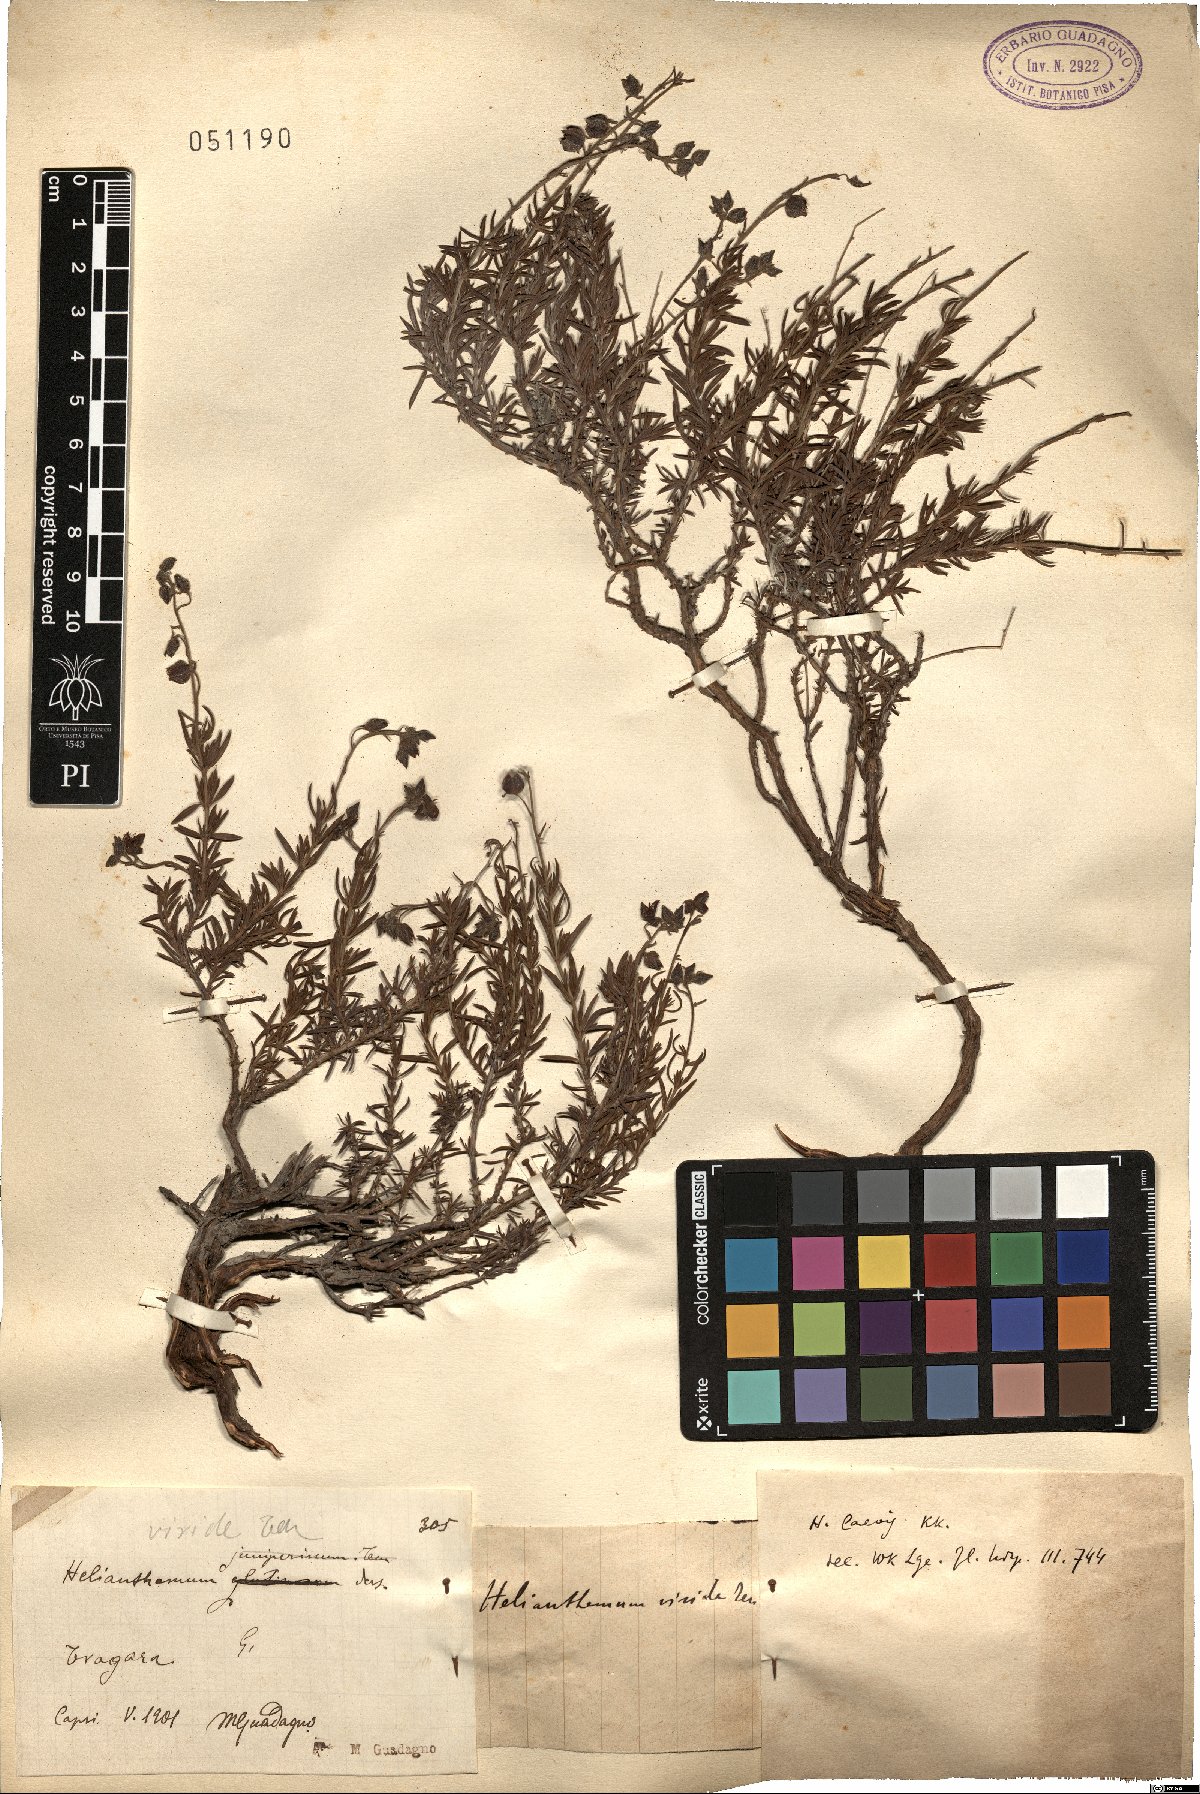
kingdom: Plantae
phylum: Tracheophyta
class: Magnoliopsida
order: Malvales
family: Cistaceae
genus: Fumana
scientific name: Fumana laevis
